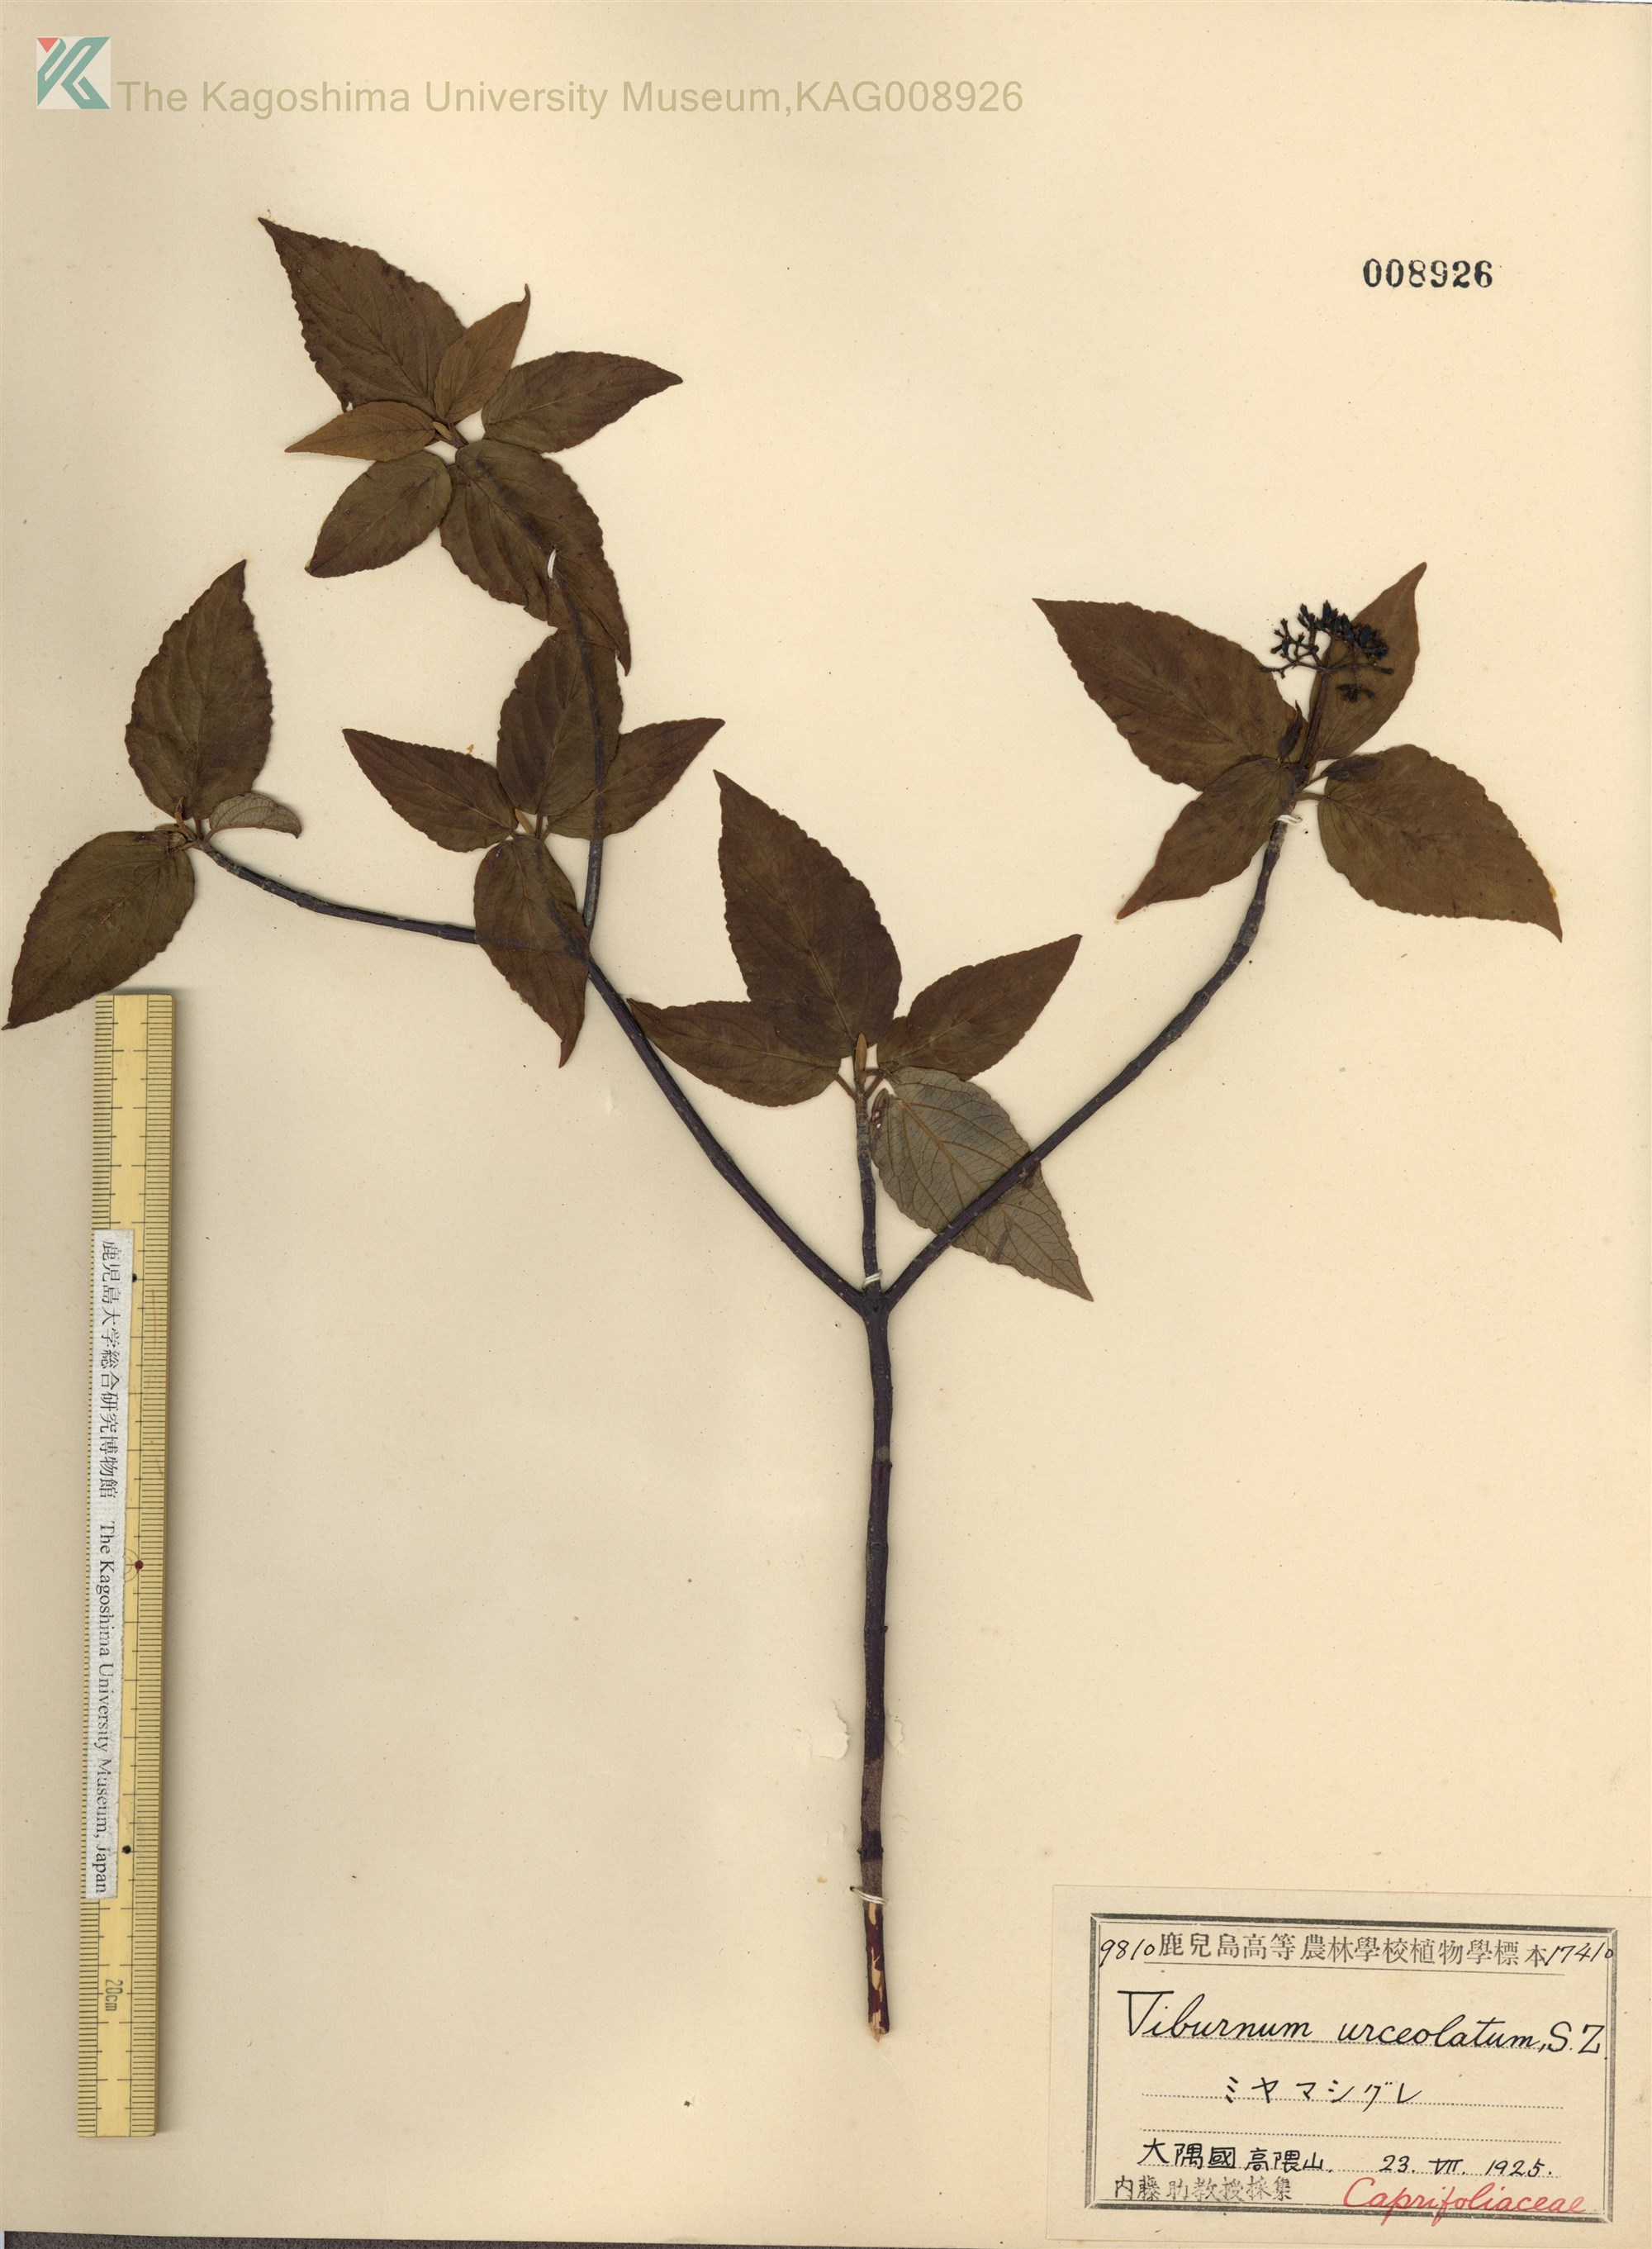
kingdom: Plantae
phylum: Tracheophyta
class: Magnoliopsida
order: Dipsacales
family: Viburnaceae
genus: Viburnum
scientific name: Viburnum urceolatum
